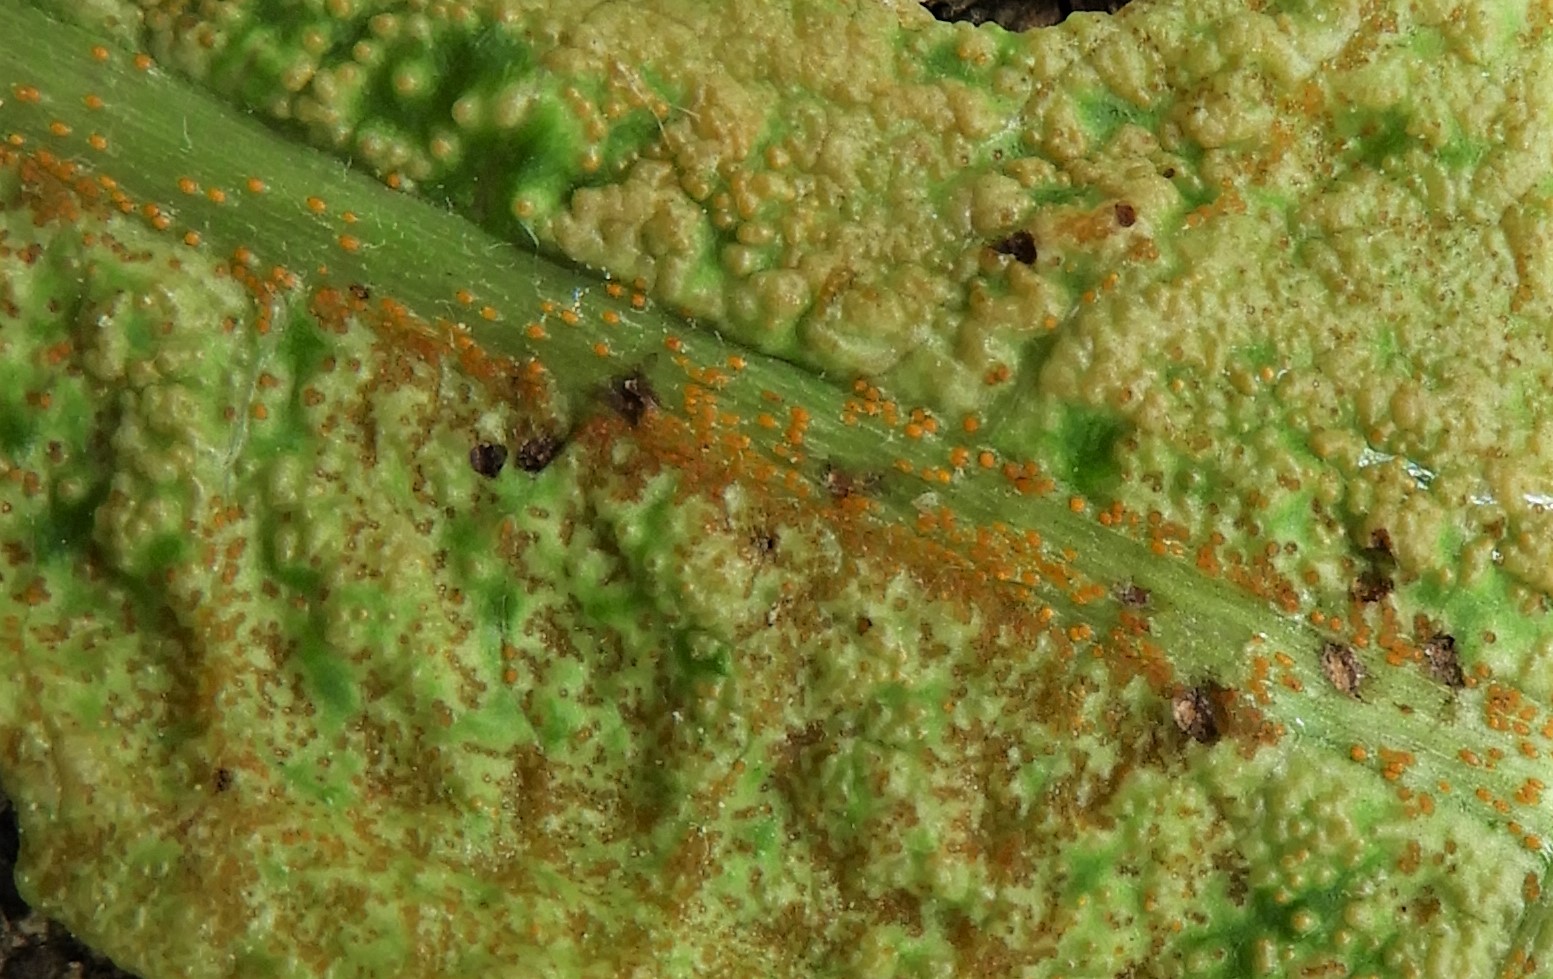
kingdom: Fungi
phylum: Chytridiomycota
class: Chytridiomycetes
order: Chytridiales
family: Synchytriaceae
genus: Synchytrium
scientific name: Synchytrium taraxaci
